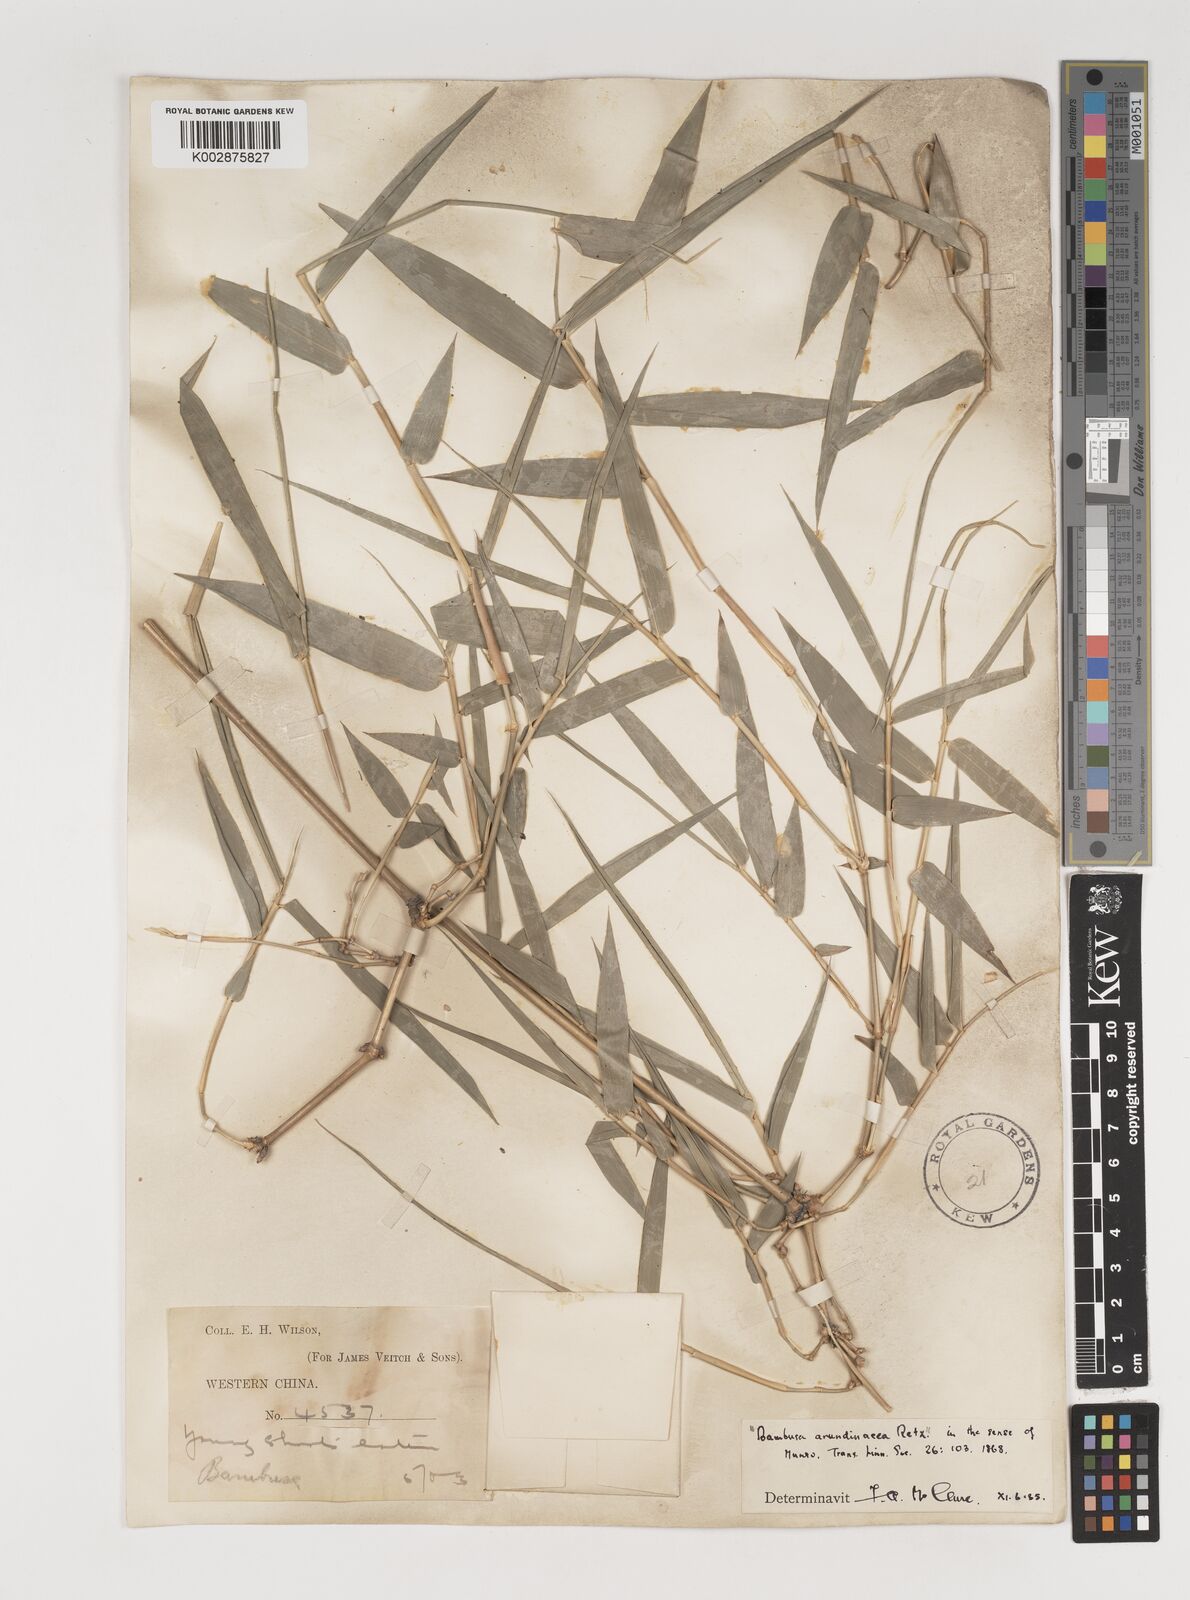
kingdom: Plantae
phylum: Tracheophyta
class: Liliopsida
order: Poales
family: Poaceae
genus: Bambusa
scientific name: Bambusa bambos
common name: Indian thorny bamboo
